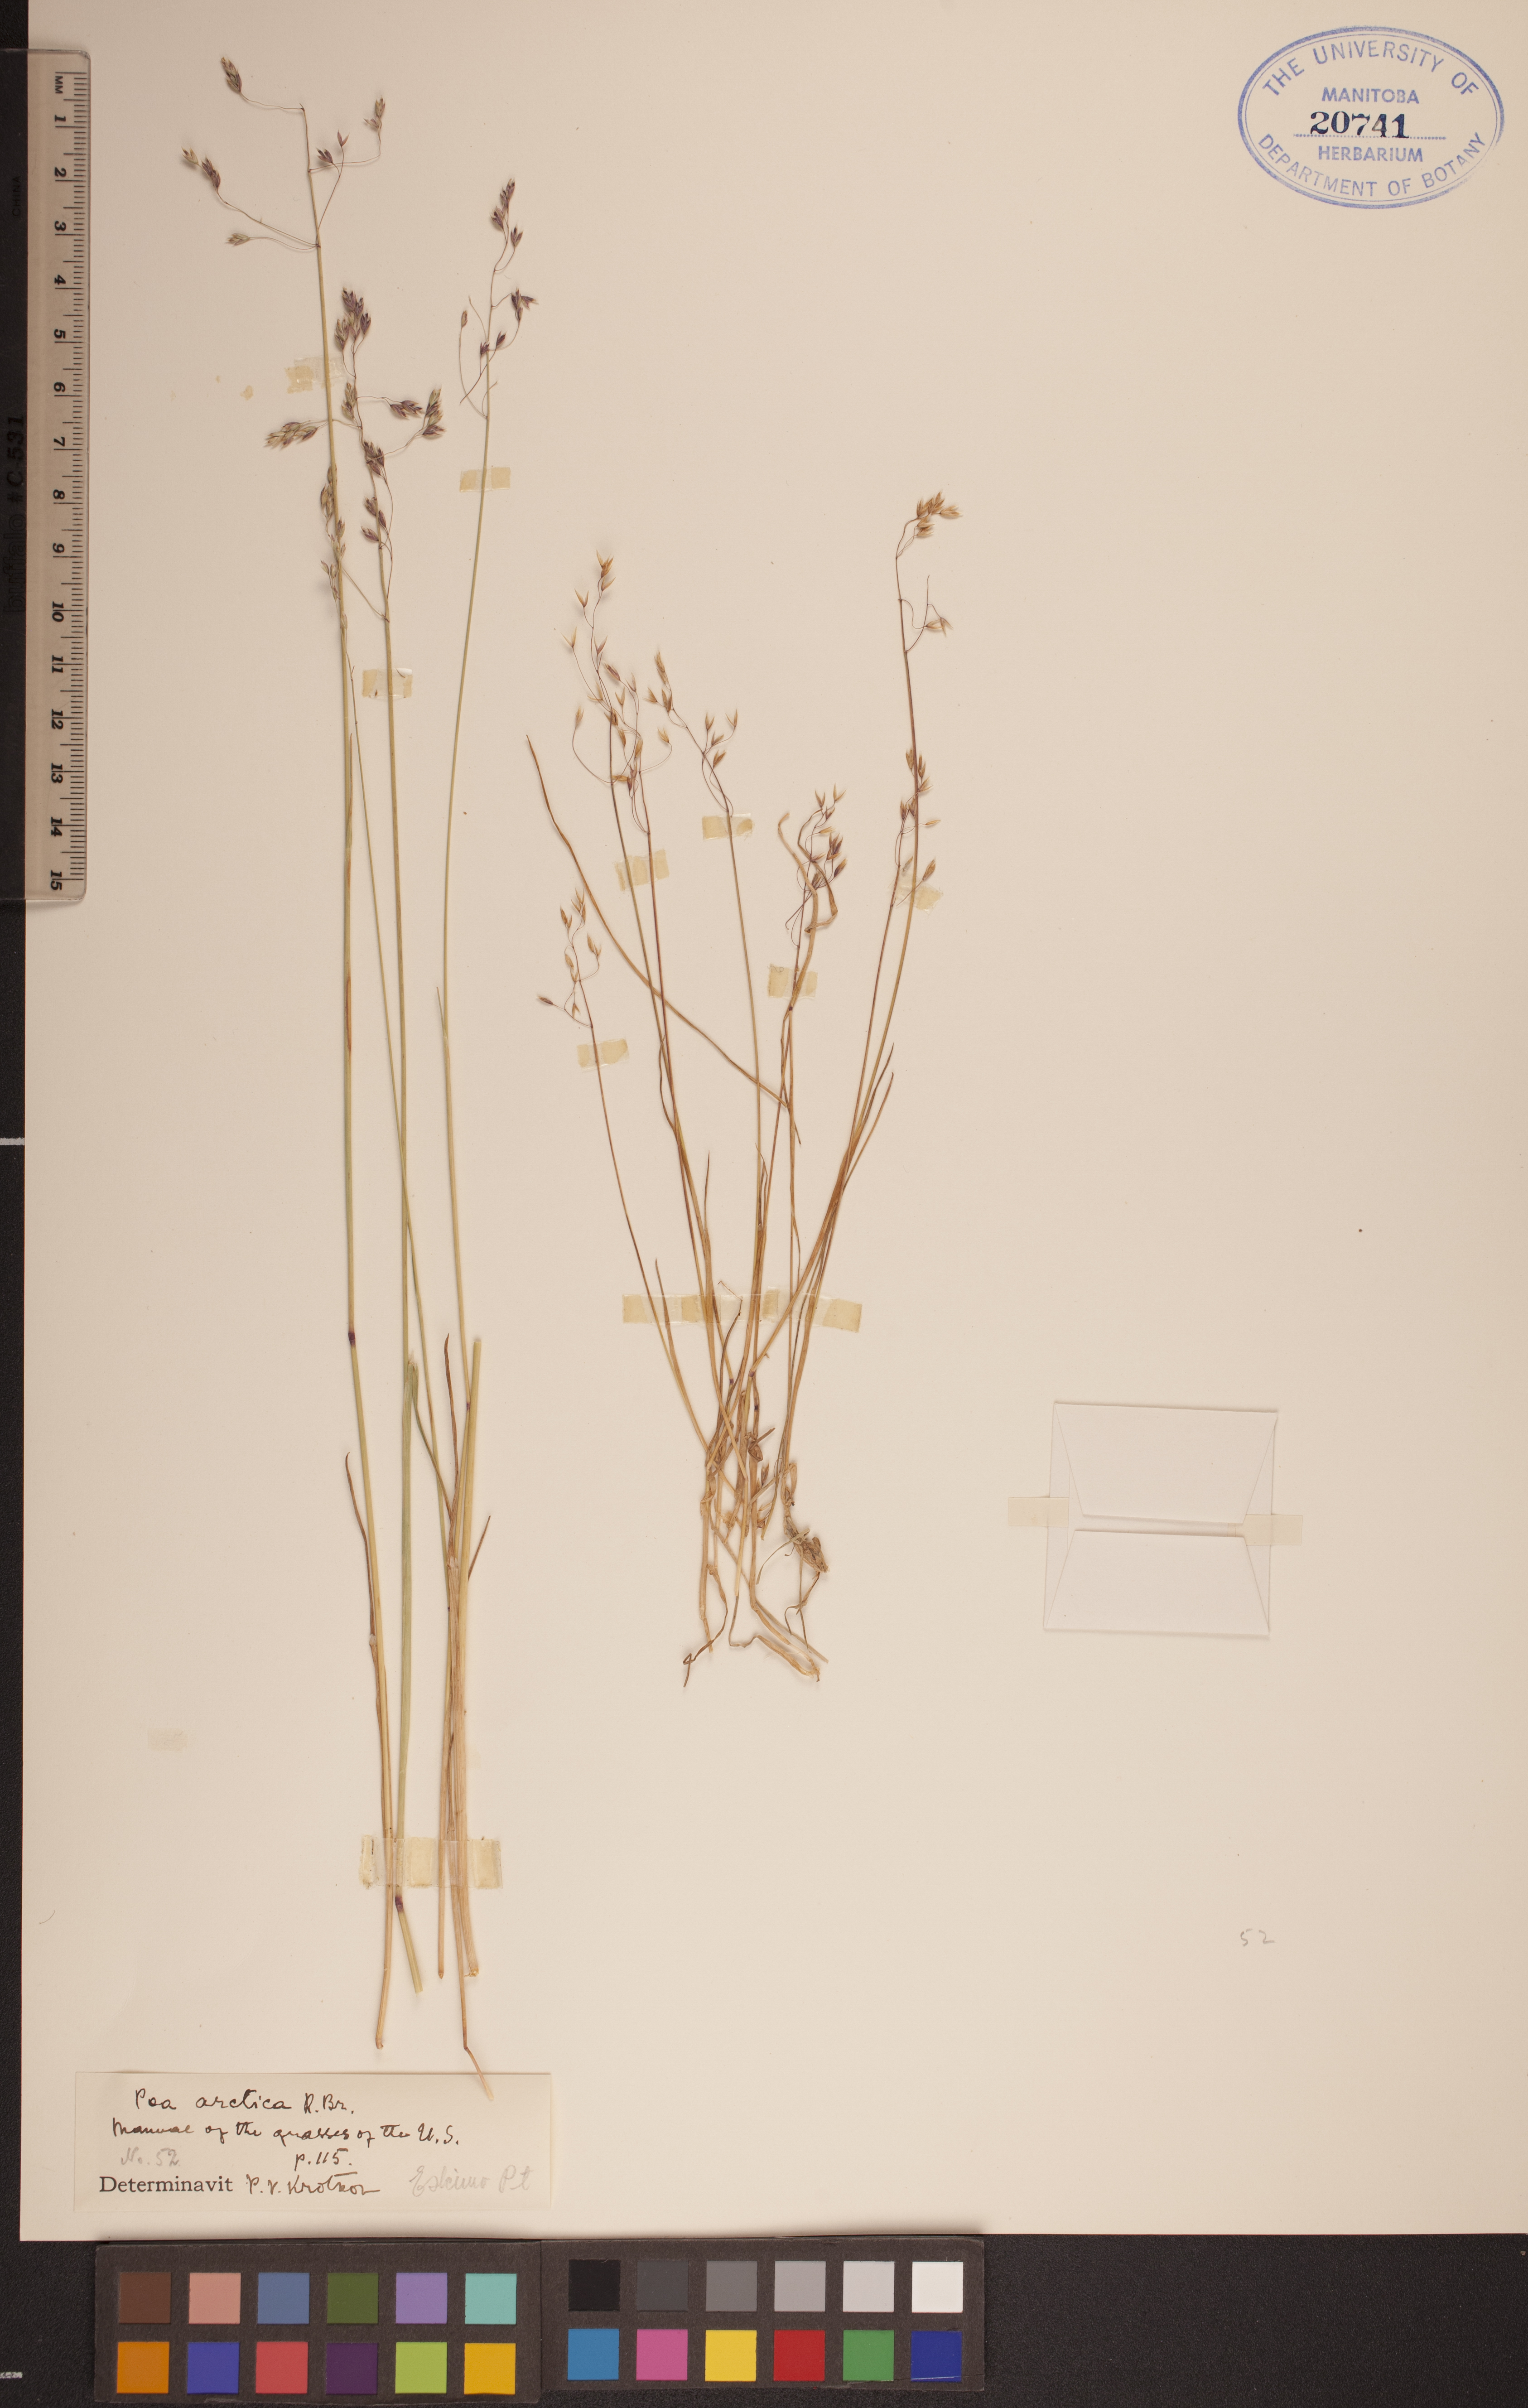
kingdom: Plantae
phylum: Tracheophyta
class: Liliopsida
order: Poales
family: Poaceae
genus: Poa
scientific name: Poa arctica
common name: Arctic bluegrass
